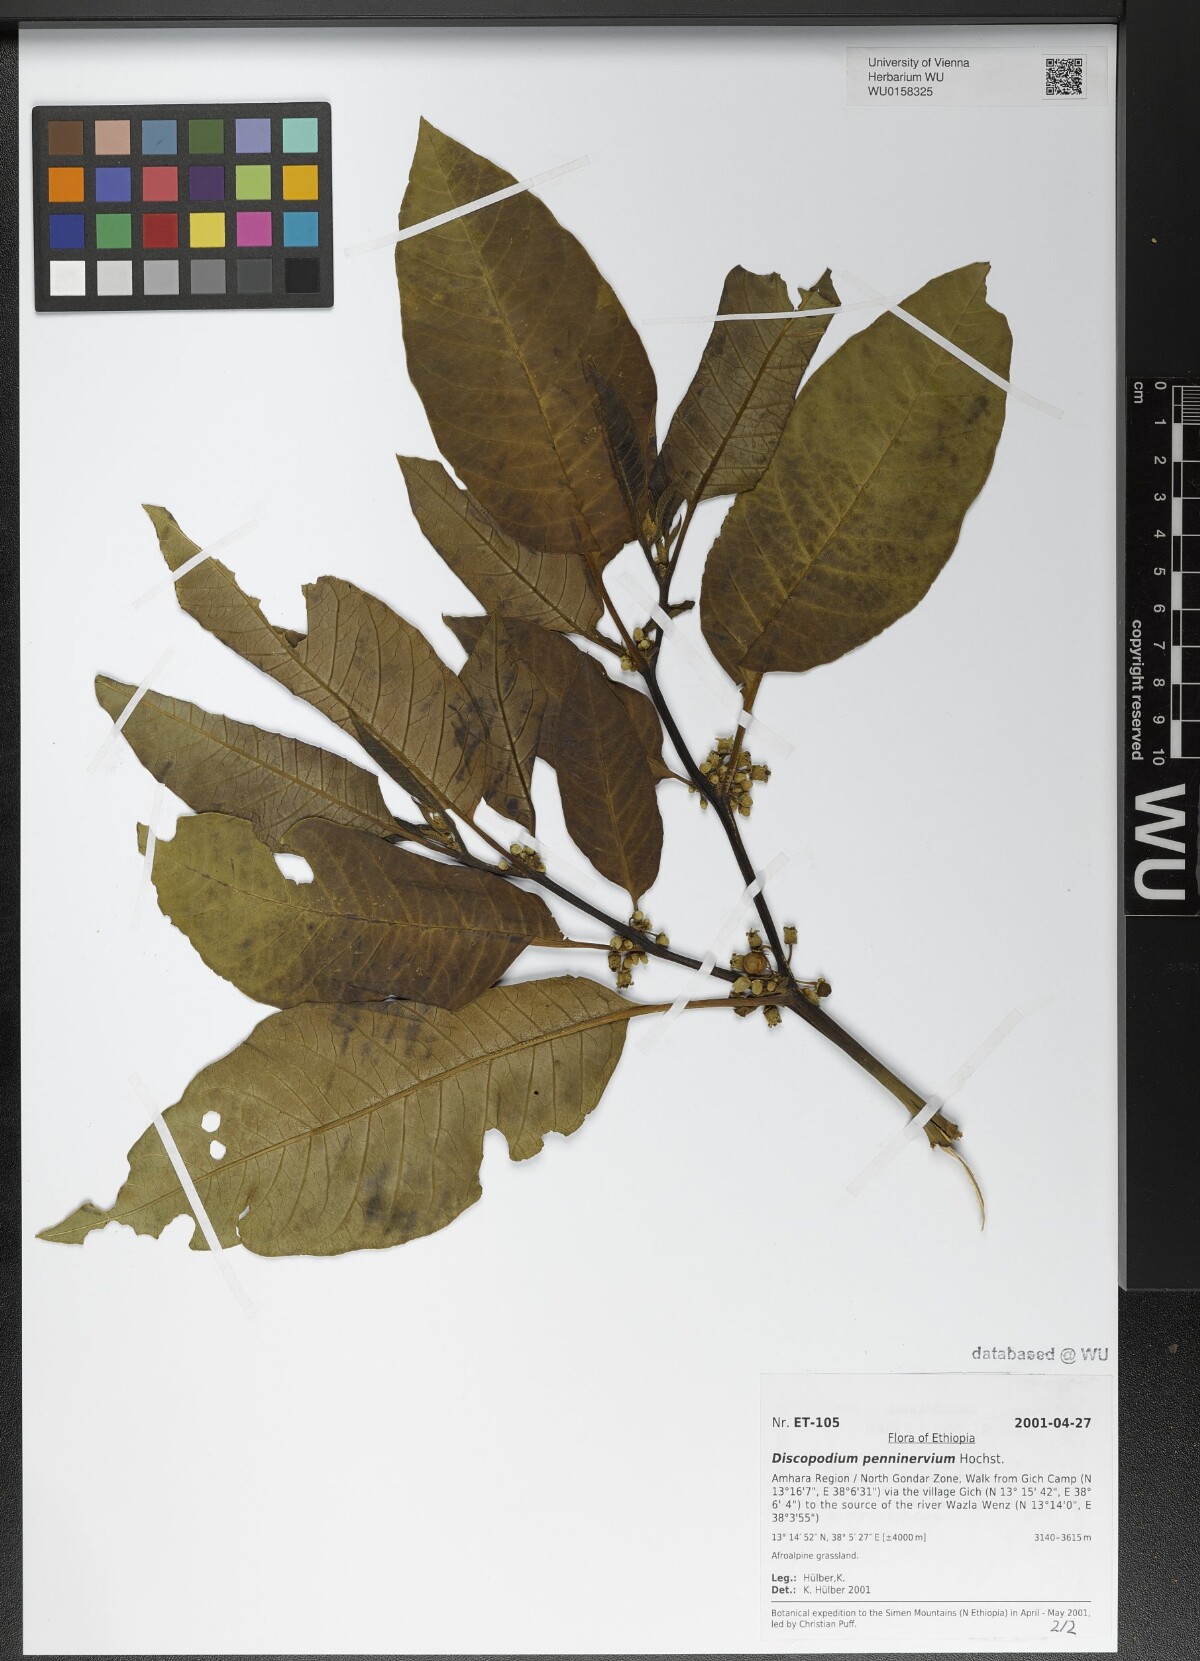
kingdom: Plantae
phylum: Tracheophyta
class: Magnoliopsida
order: Solanales
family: Solanaceae
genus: Discopodium
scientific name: Discopodium penninervium
